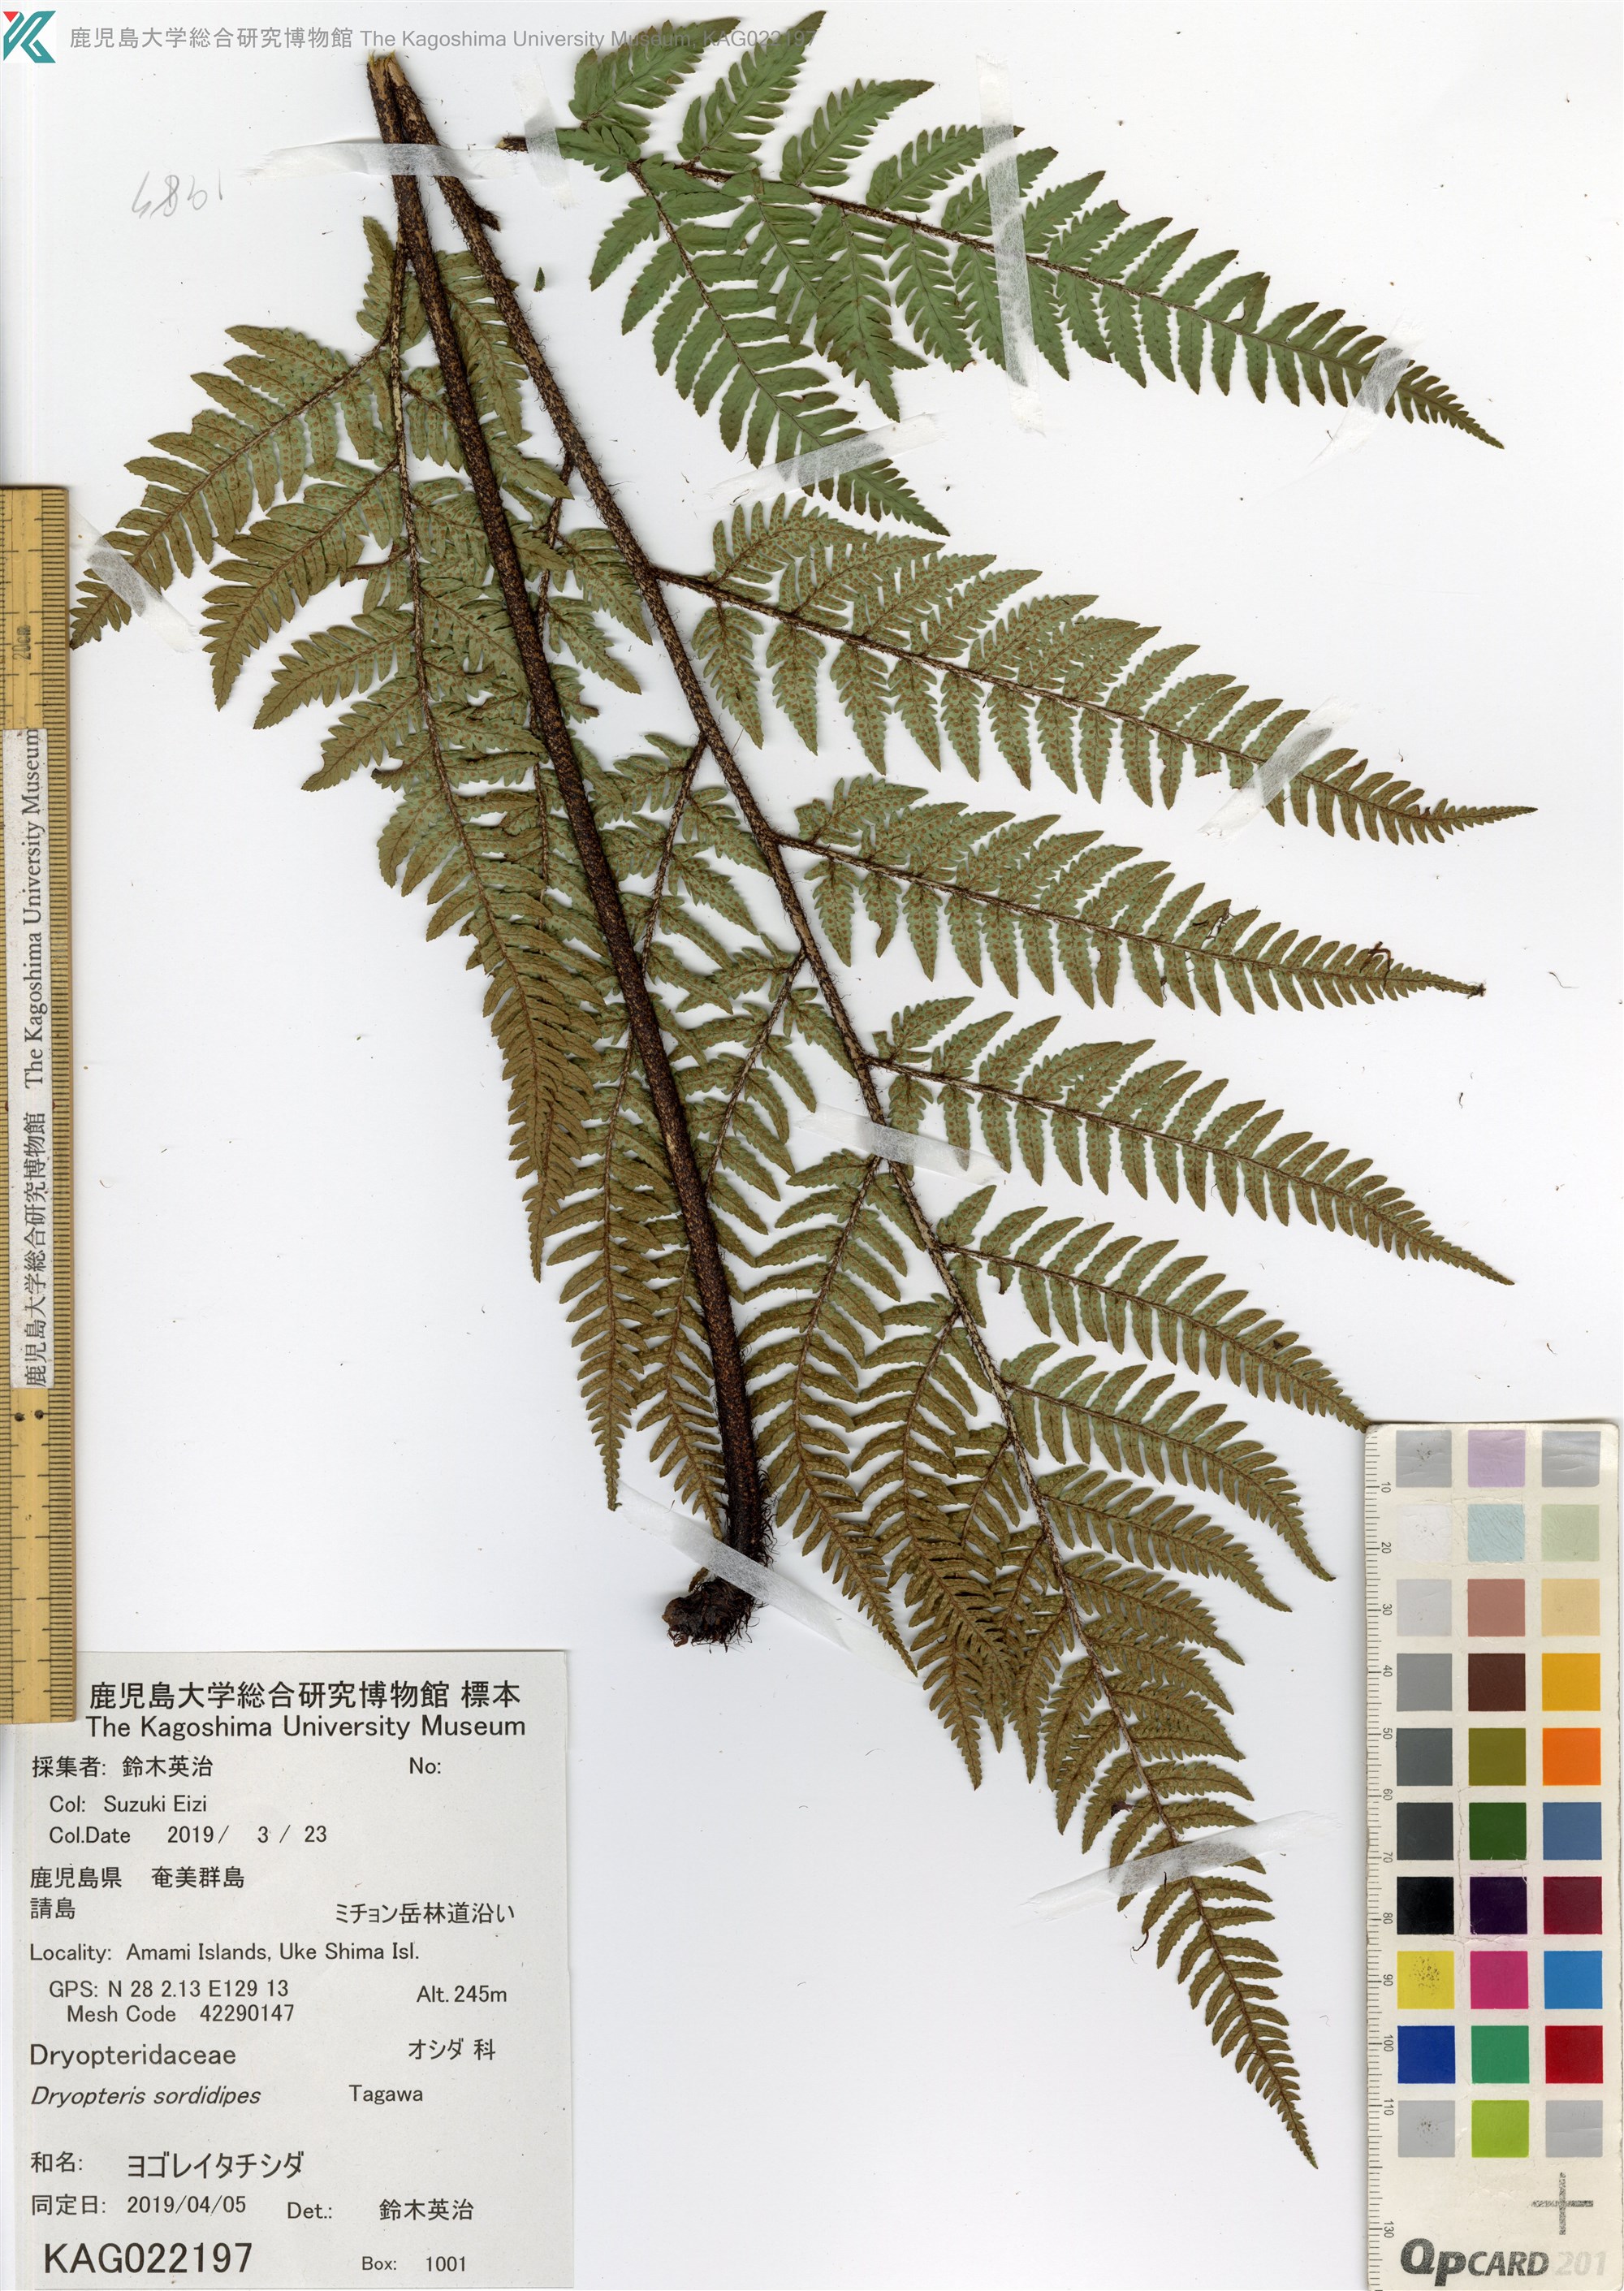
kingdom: Plantae
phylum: Tracheophyta
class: Polypodiopsida
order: Polypodiales
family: Dryopteridaceae
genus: Dryopteris
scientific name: Dryopteris sordidipes
